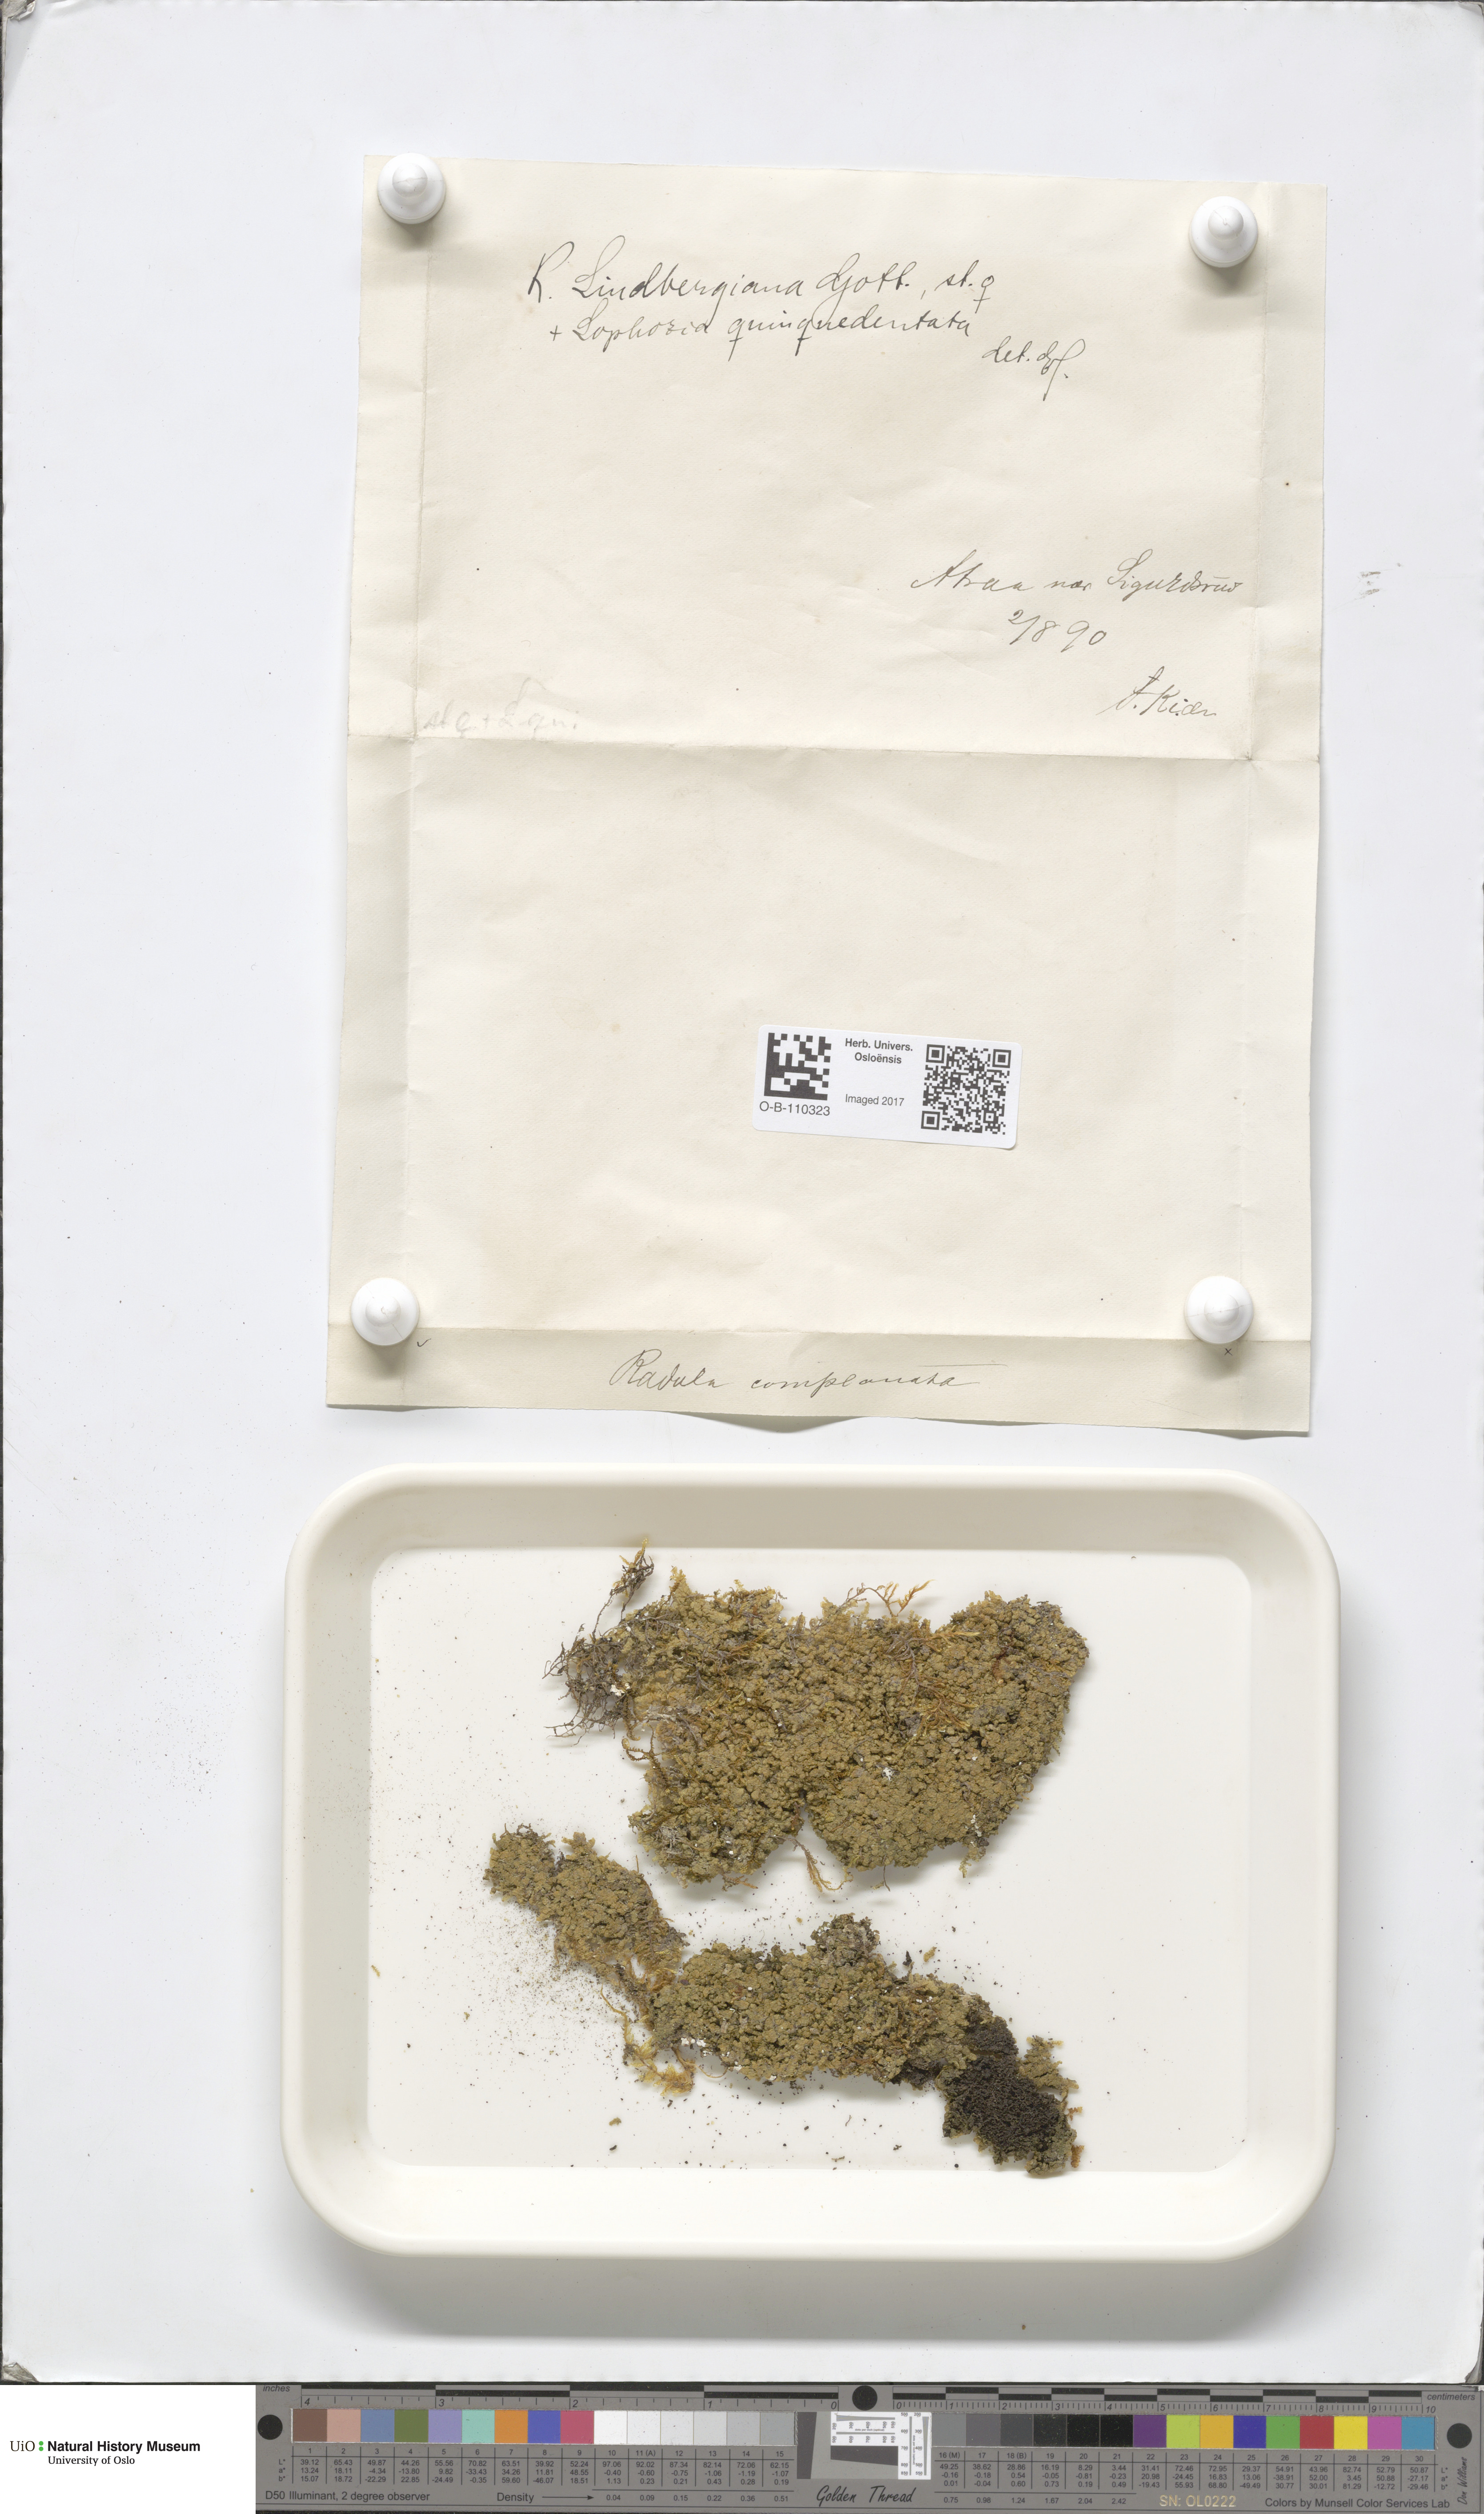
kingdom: Plantae
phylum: Marchantiophyta
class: Jungermanniopsida
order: Porellales
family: Radulaceae
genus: Radula
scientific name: Radula complanata
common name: Flat-leaved scalewort
